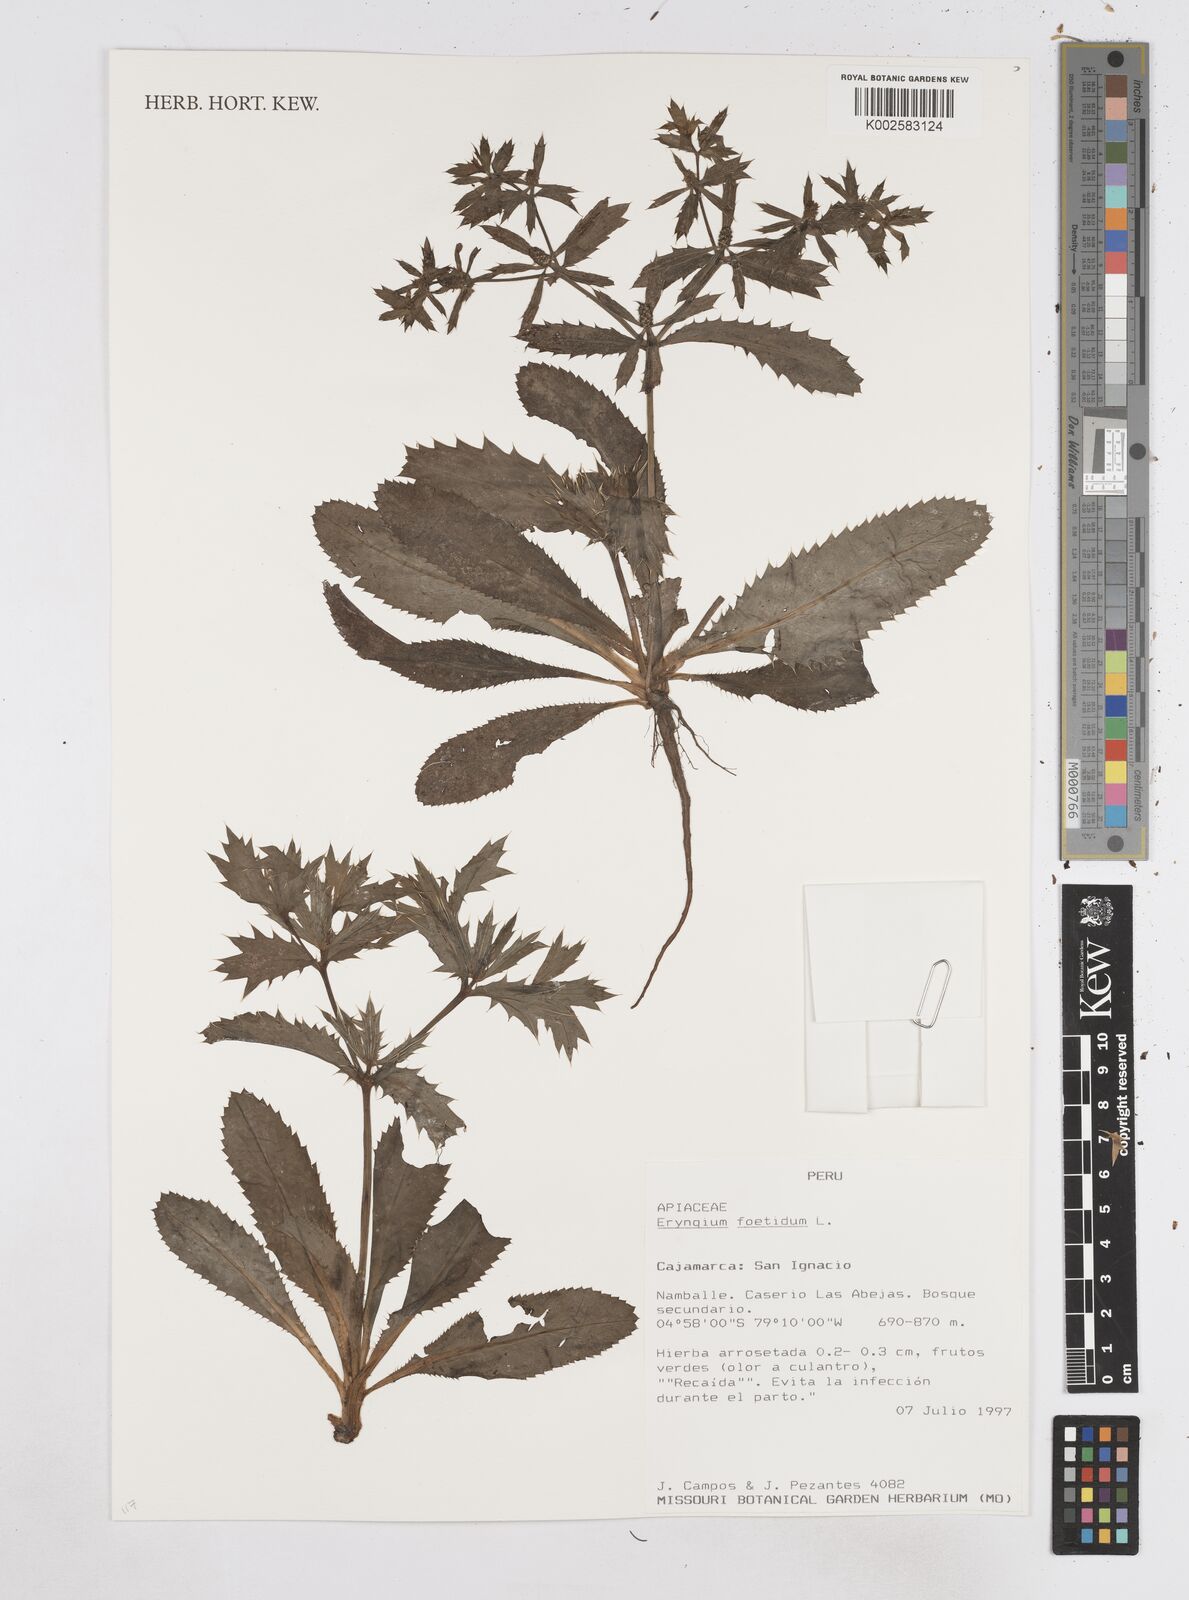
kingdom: Plantae
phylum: Tracheophyta
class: Magnoliopsida
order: Apiales
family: Apiaceae
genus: Eryngium
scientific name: Eryngium foetidum
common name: Fitweed
